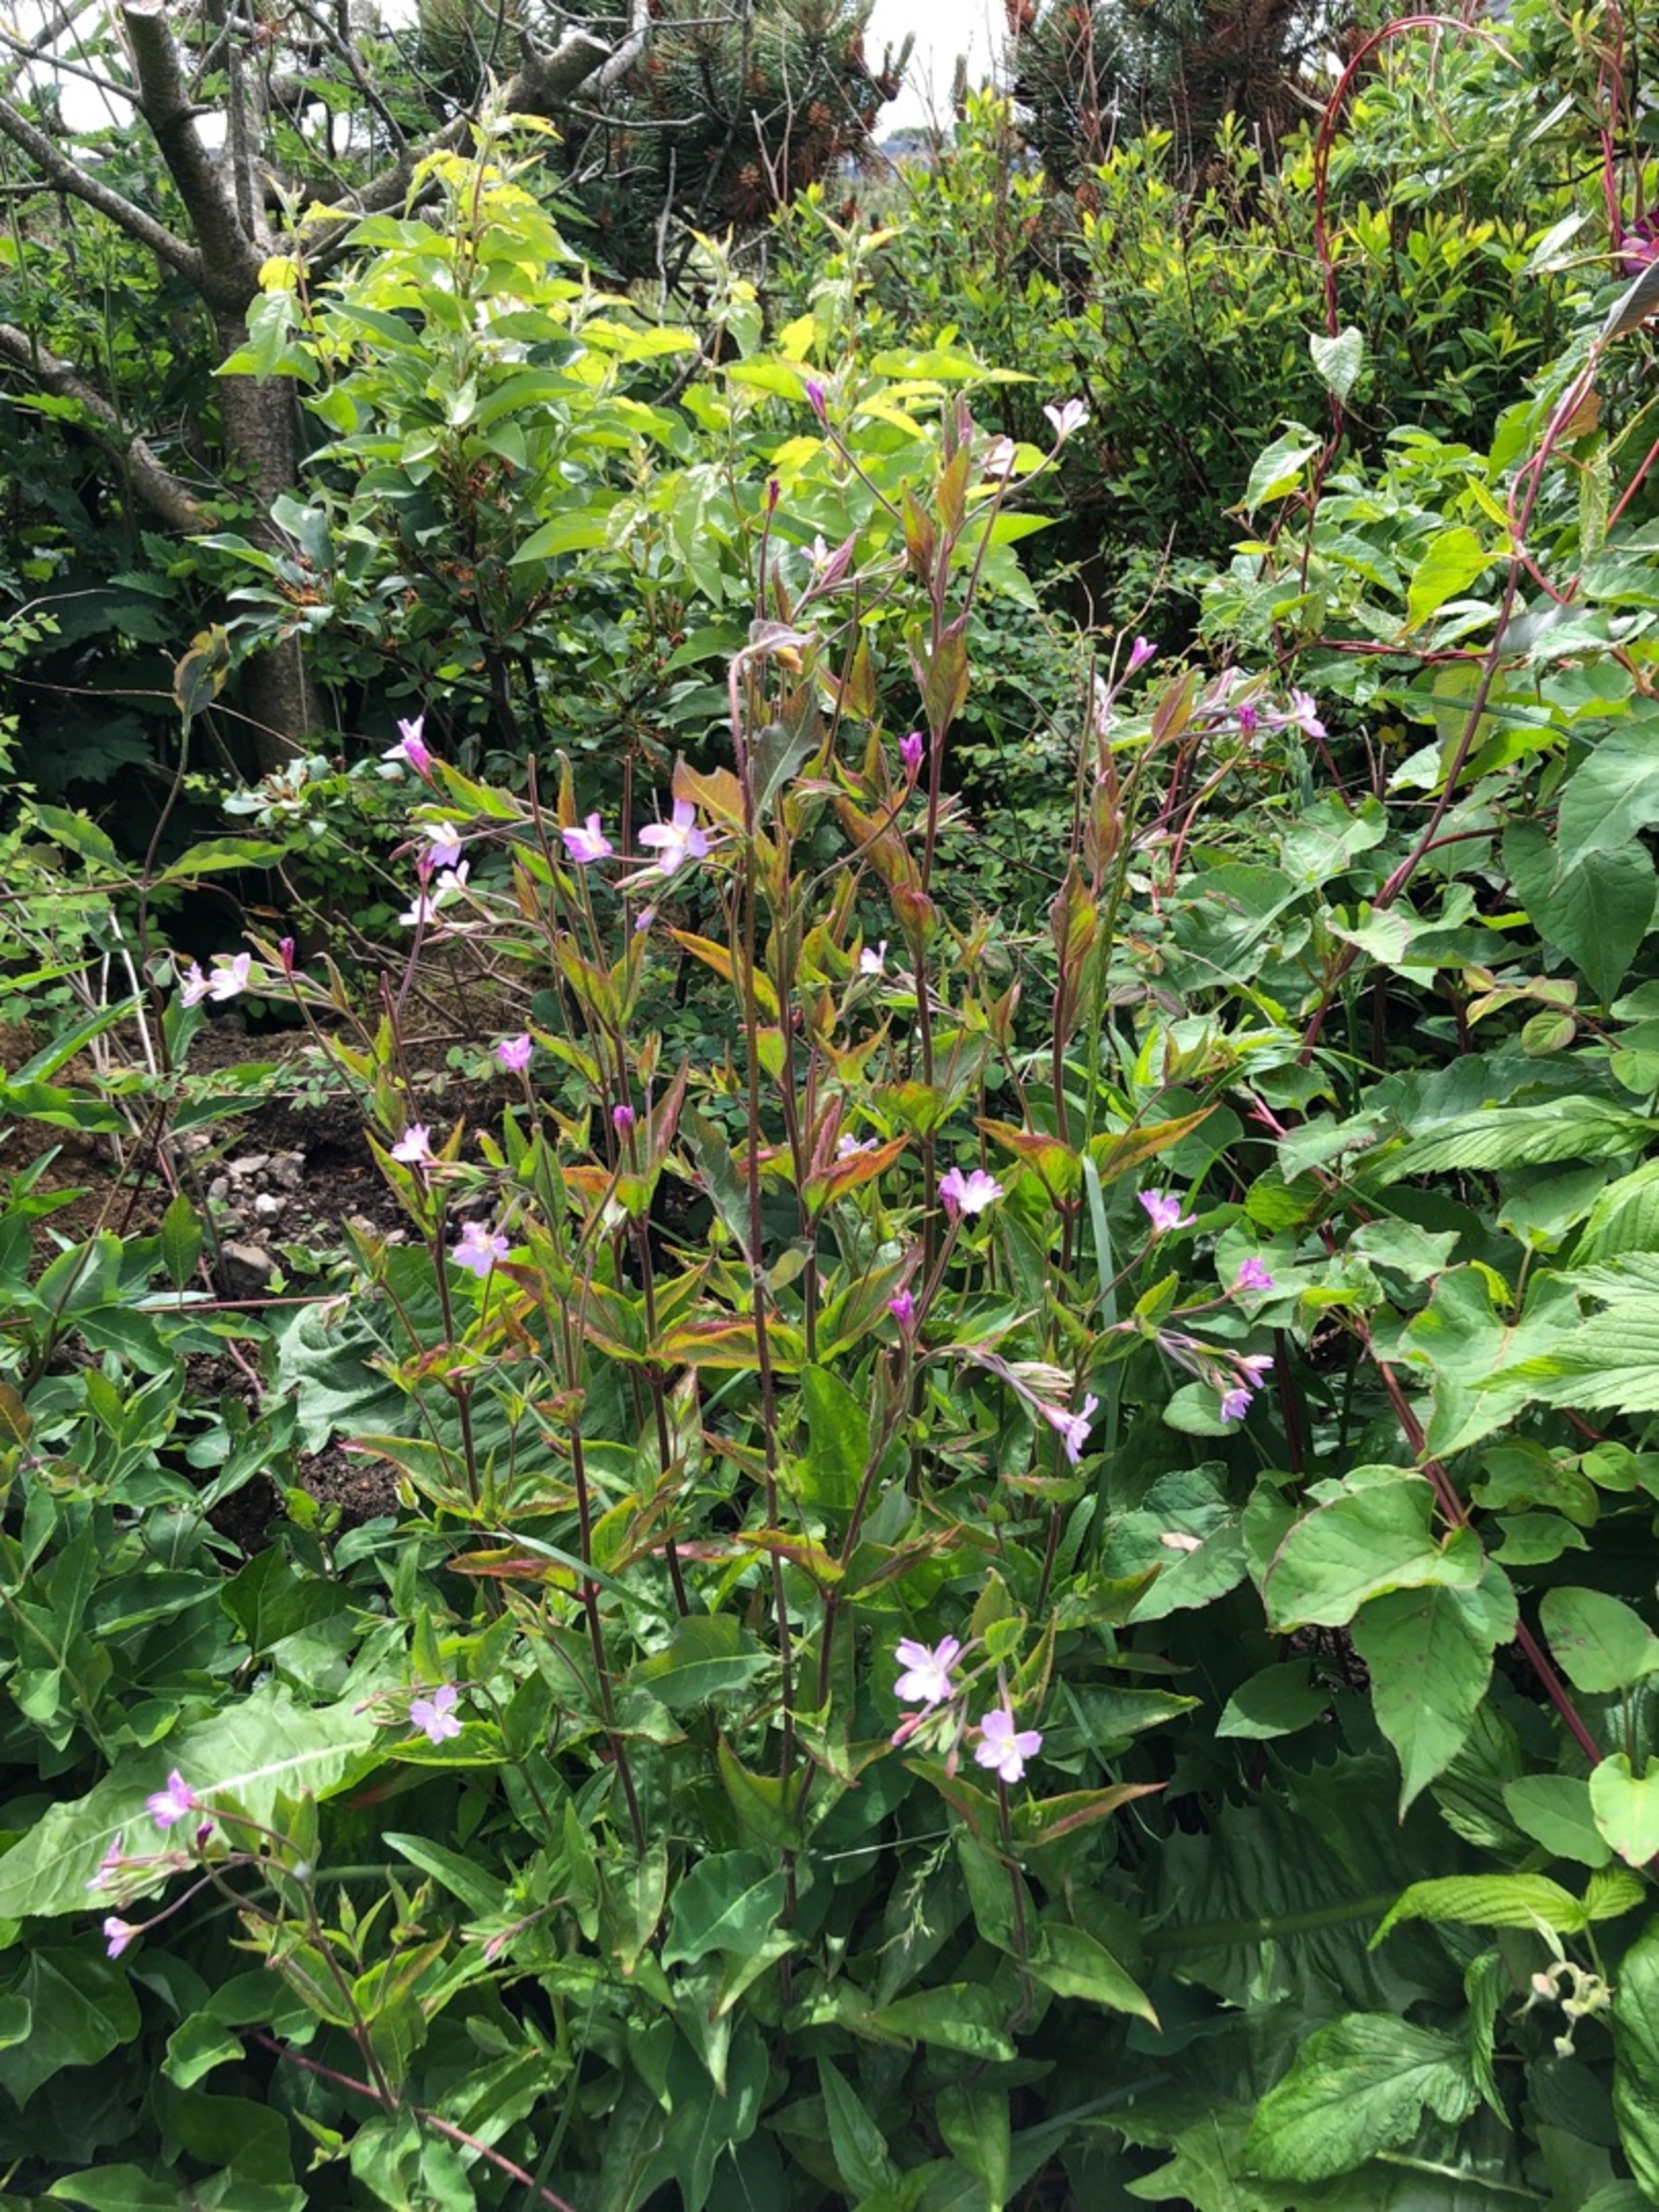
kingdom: Plantae
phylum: Tracheophyta
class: Magnoliopsida
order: Myrtales
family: Onagraceae
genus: Epilobium
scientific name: Epilobium montanum
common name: Glat dueurt
